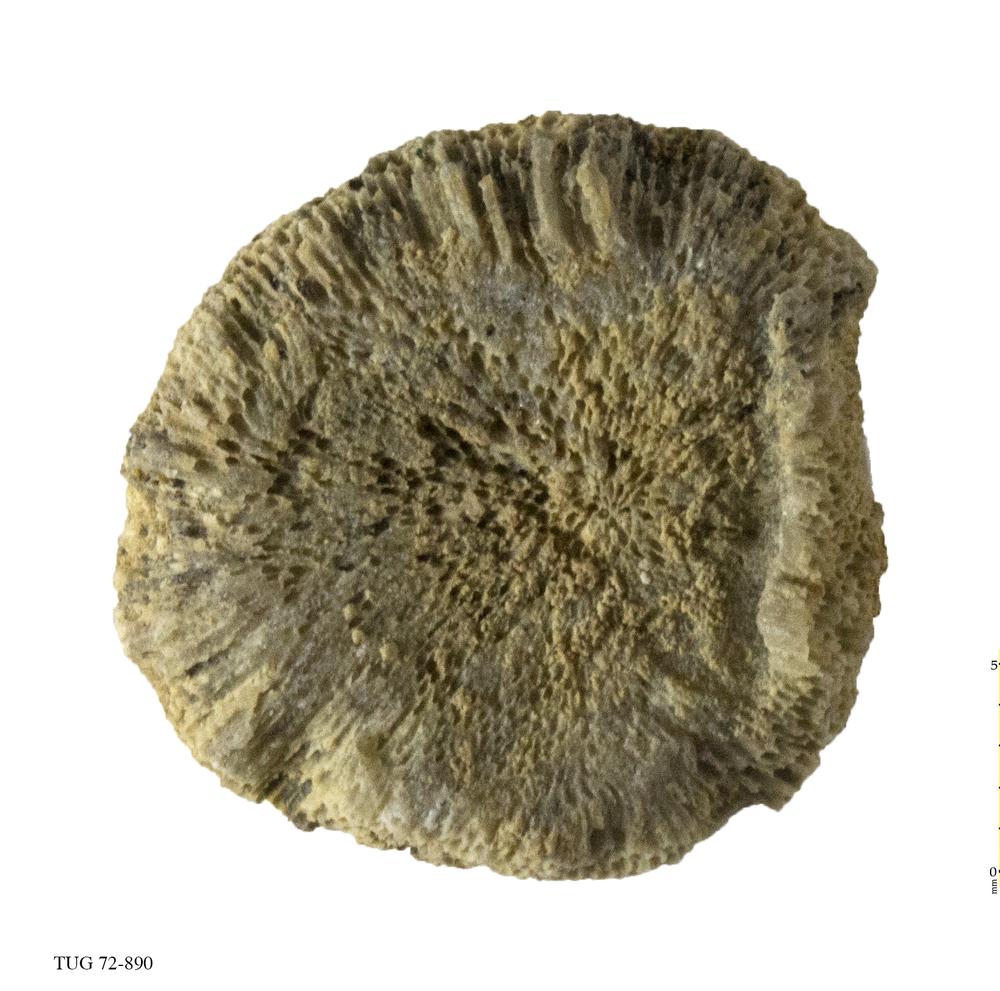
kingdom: Animalia
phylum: Bryozoa
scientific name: Bryozoa
